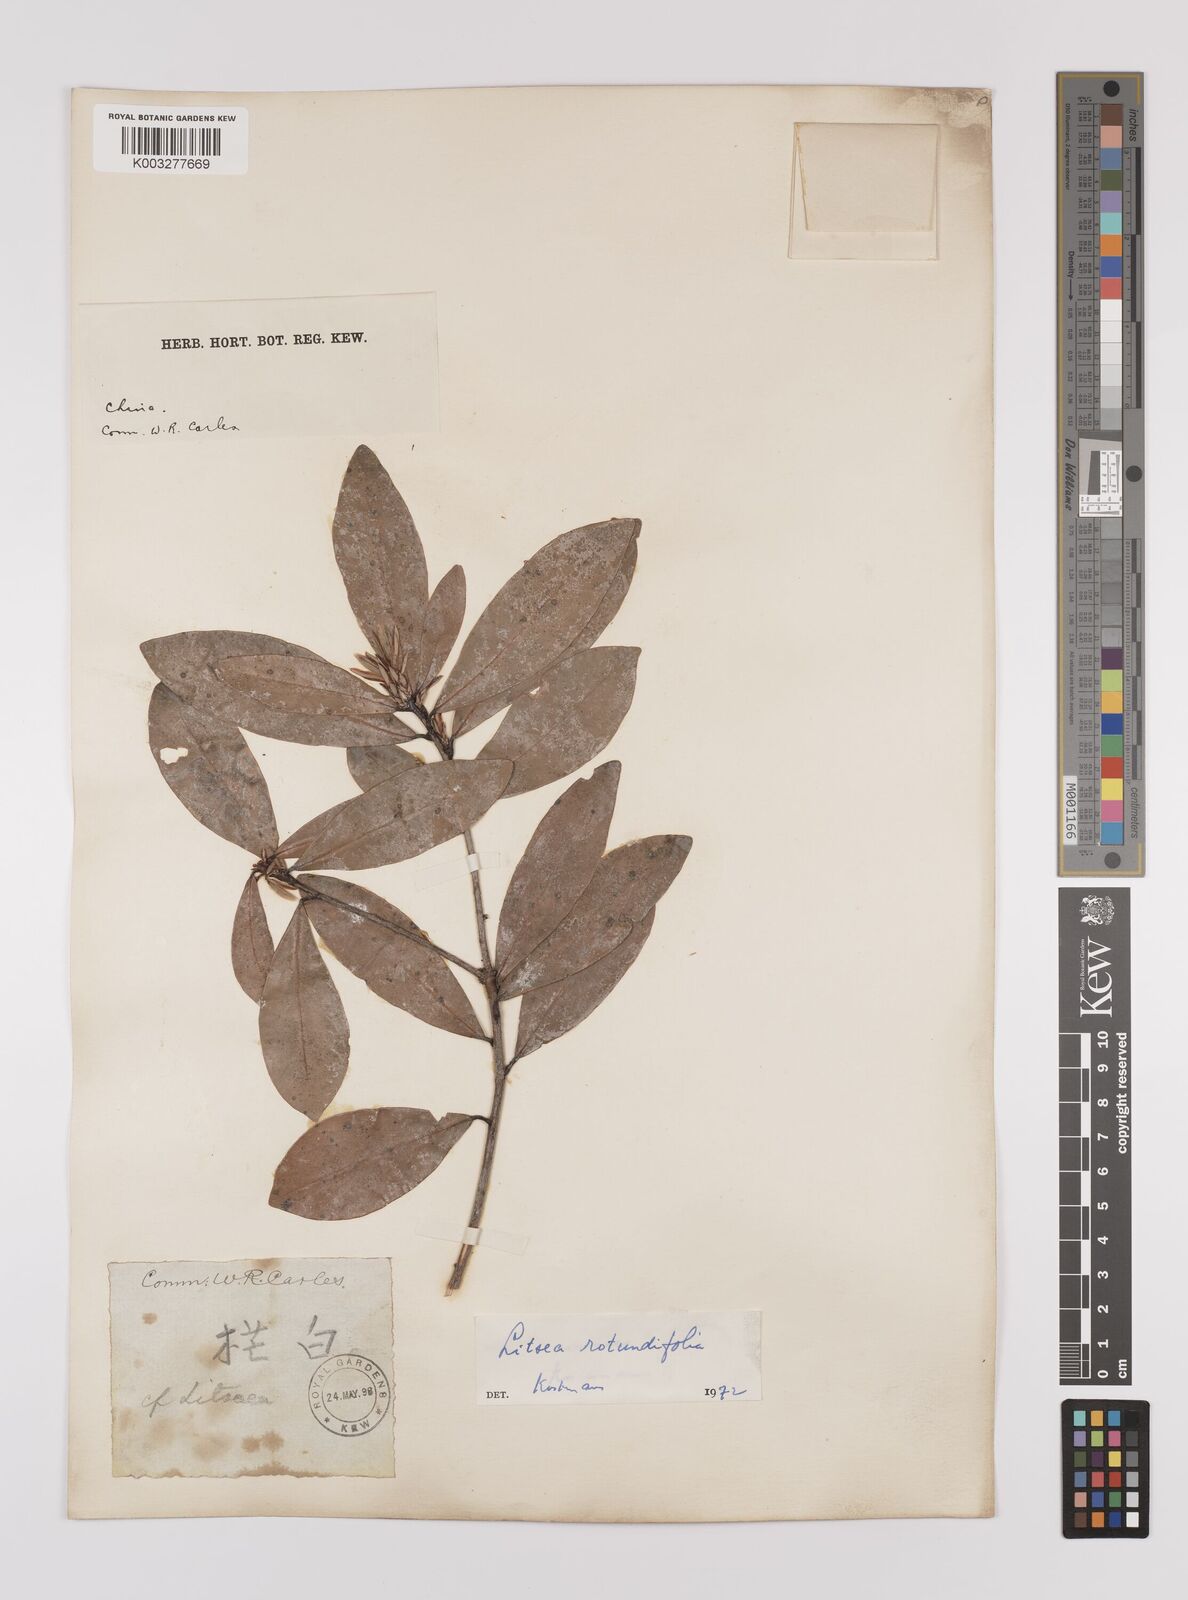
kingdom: Plantae
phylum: Tracheophyta
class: Magnoliopsida
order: Laurales
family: Lauraceae
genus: Litsea
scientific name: Litsea rotundifolia
